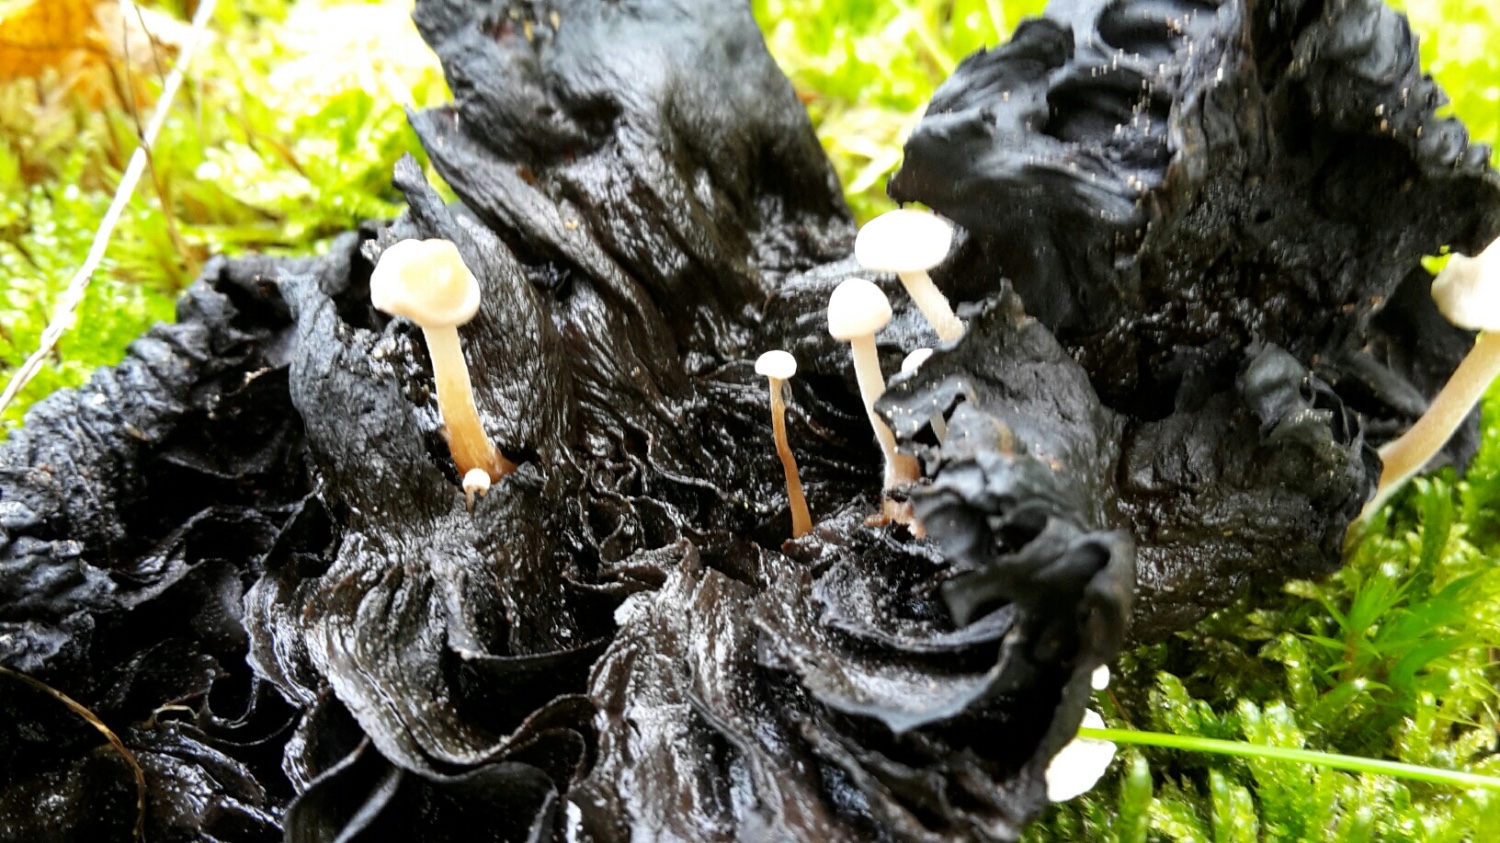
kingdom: Fungi
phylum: Basidiomycota
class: Agaricomycetes
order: Agaricales
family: Tricholomataceae
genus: Collybia
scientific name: Collybia cookei
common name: gulknoldet lighat
